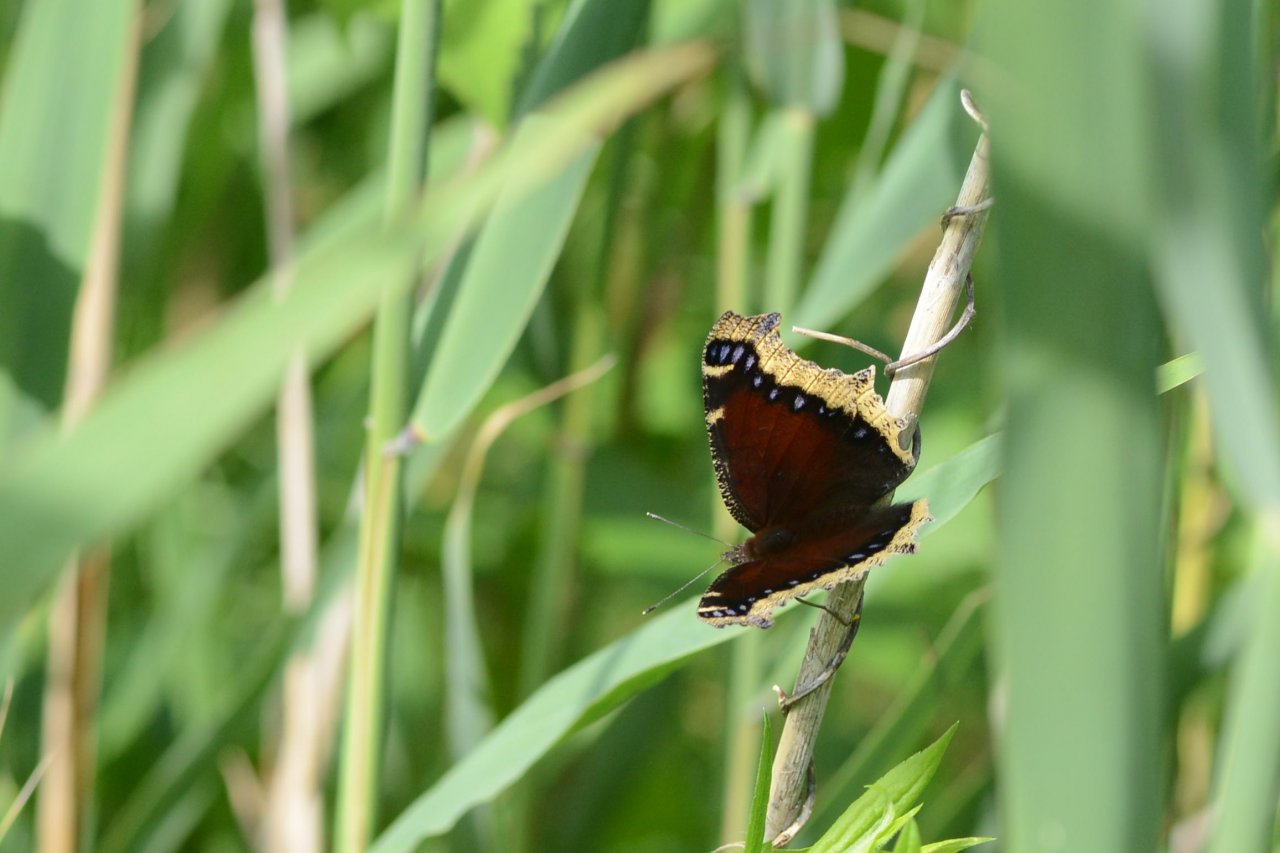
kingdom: Animalia
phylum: Arthropoda
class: Insecta
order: Lepidoptera
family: Nymphalidae
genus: Nymphalis
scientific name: Nymphalis antiopa
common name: Mourning Cloak
